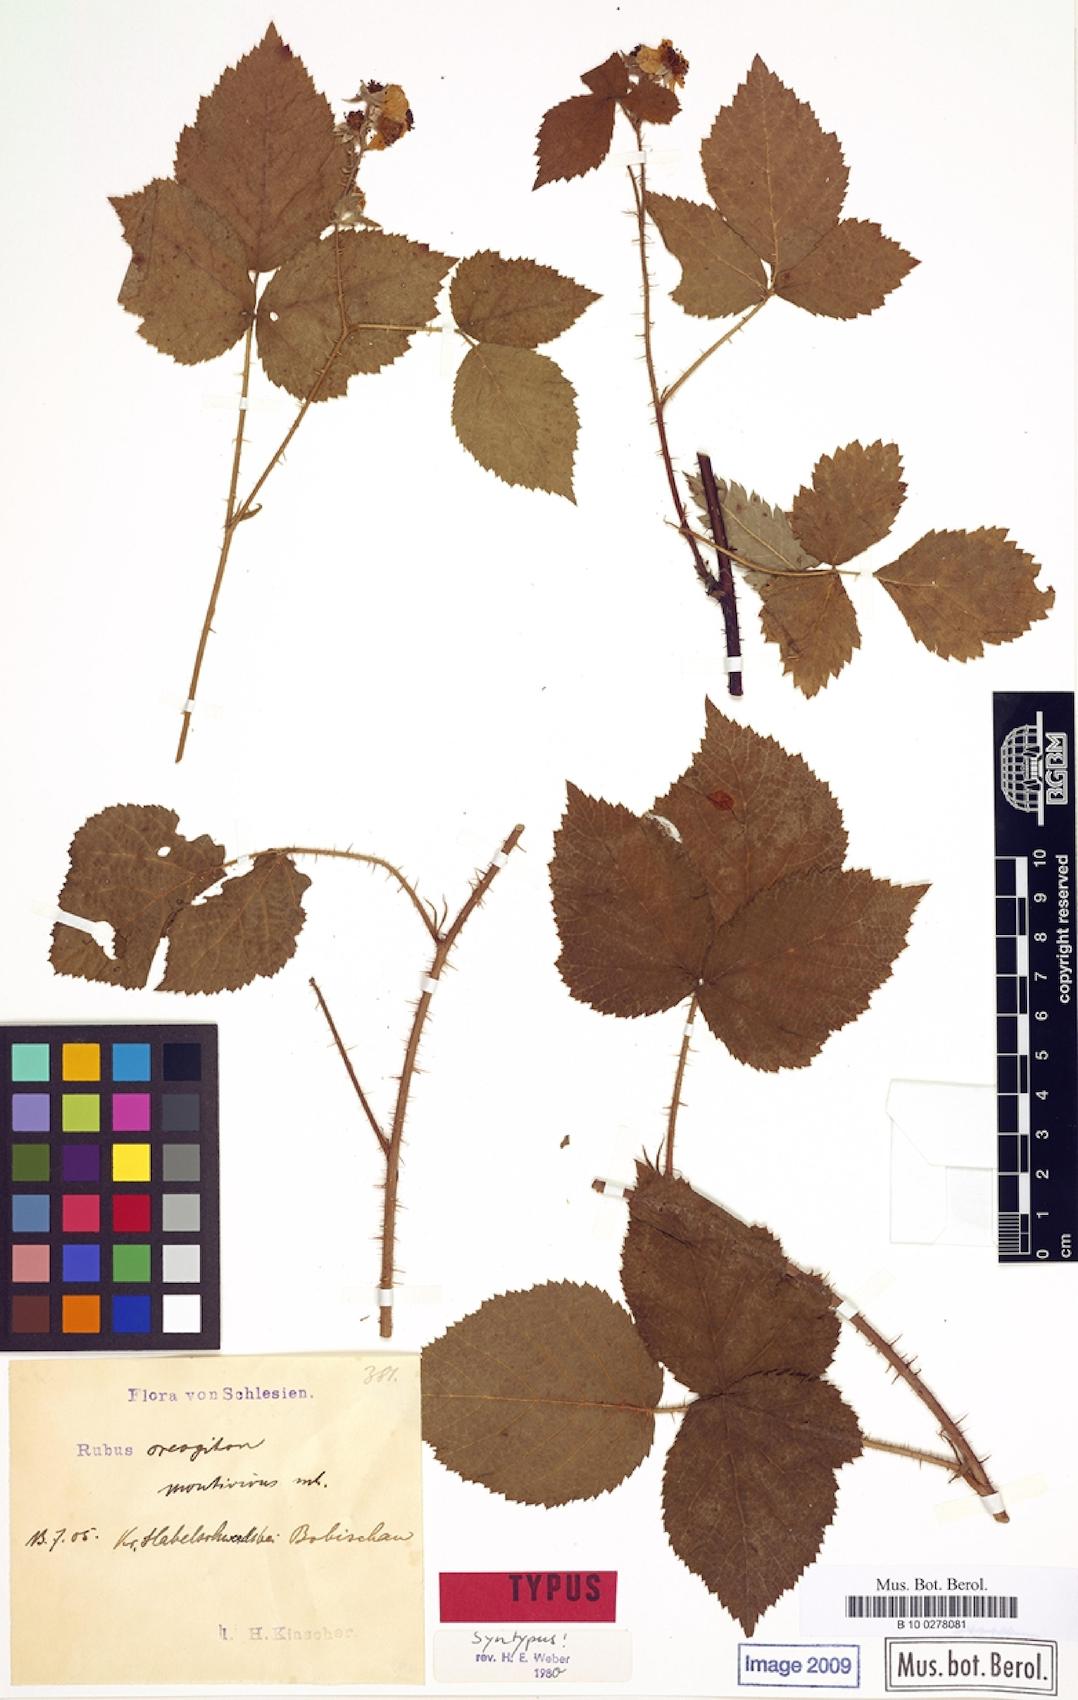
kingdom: Plantae
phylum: Tracheophyta
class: Magnoliopsida
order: Rosales
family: Rosaceae
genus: Rubus
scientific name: Rubus dollnensis
